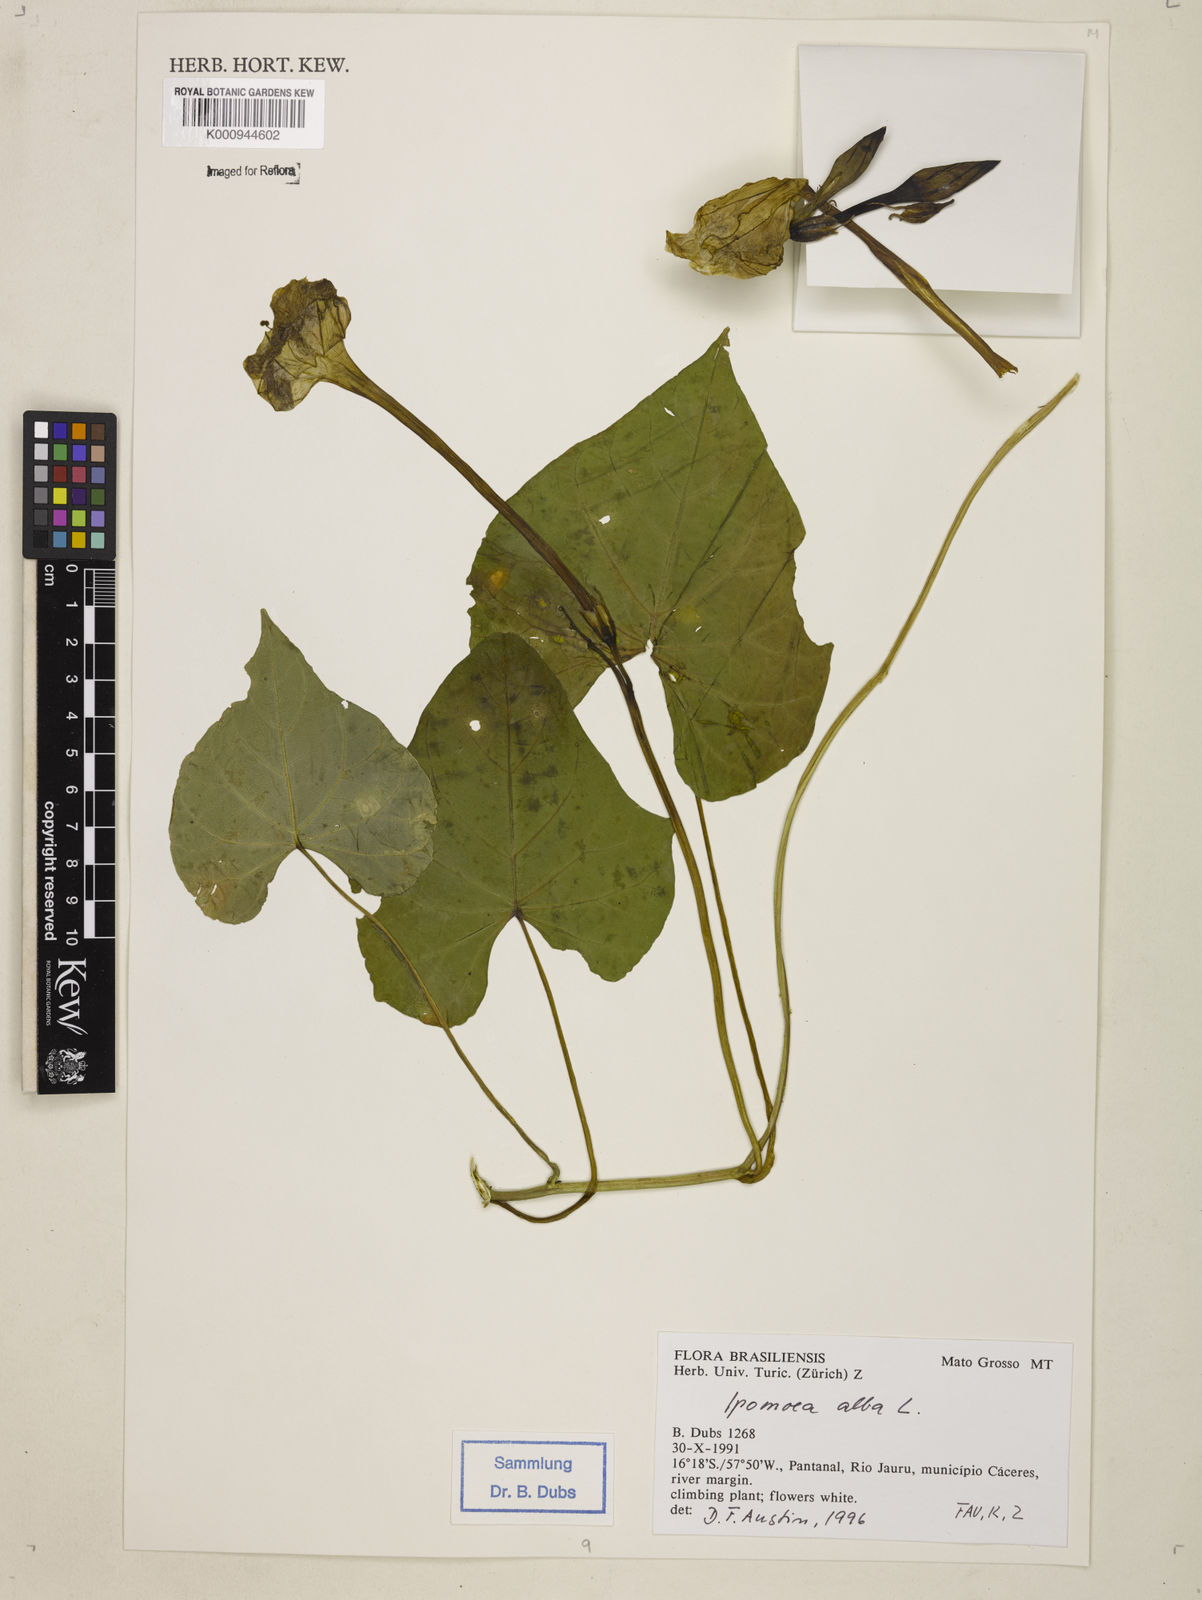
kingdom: Plantae
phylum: Tracheophyta
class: Magnoliopsida
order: Solanales
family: Convolvulaceae
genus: Ipomoea
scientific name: Ipomoea
